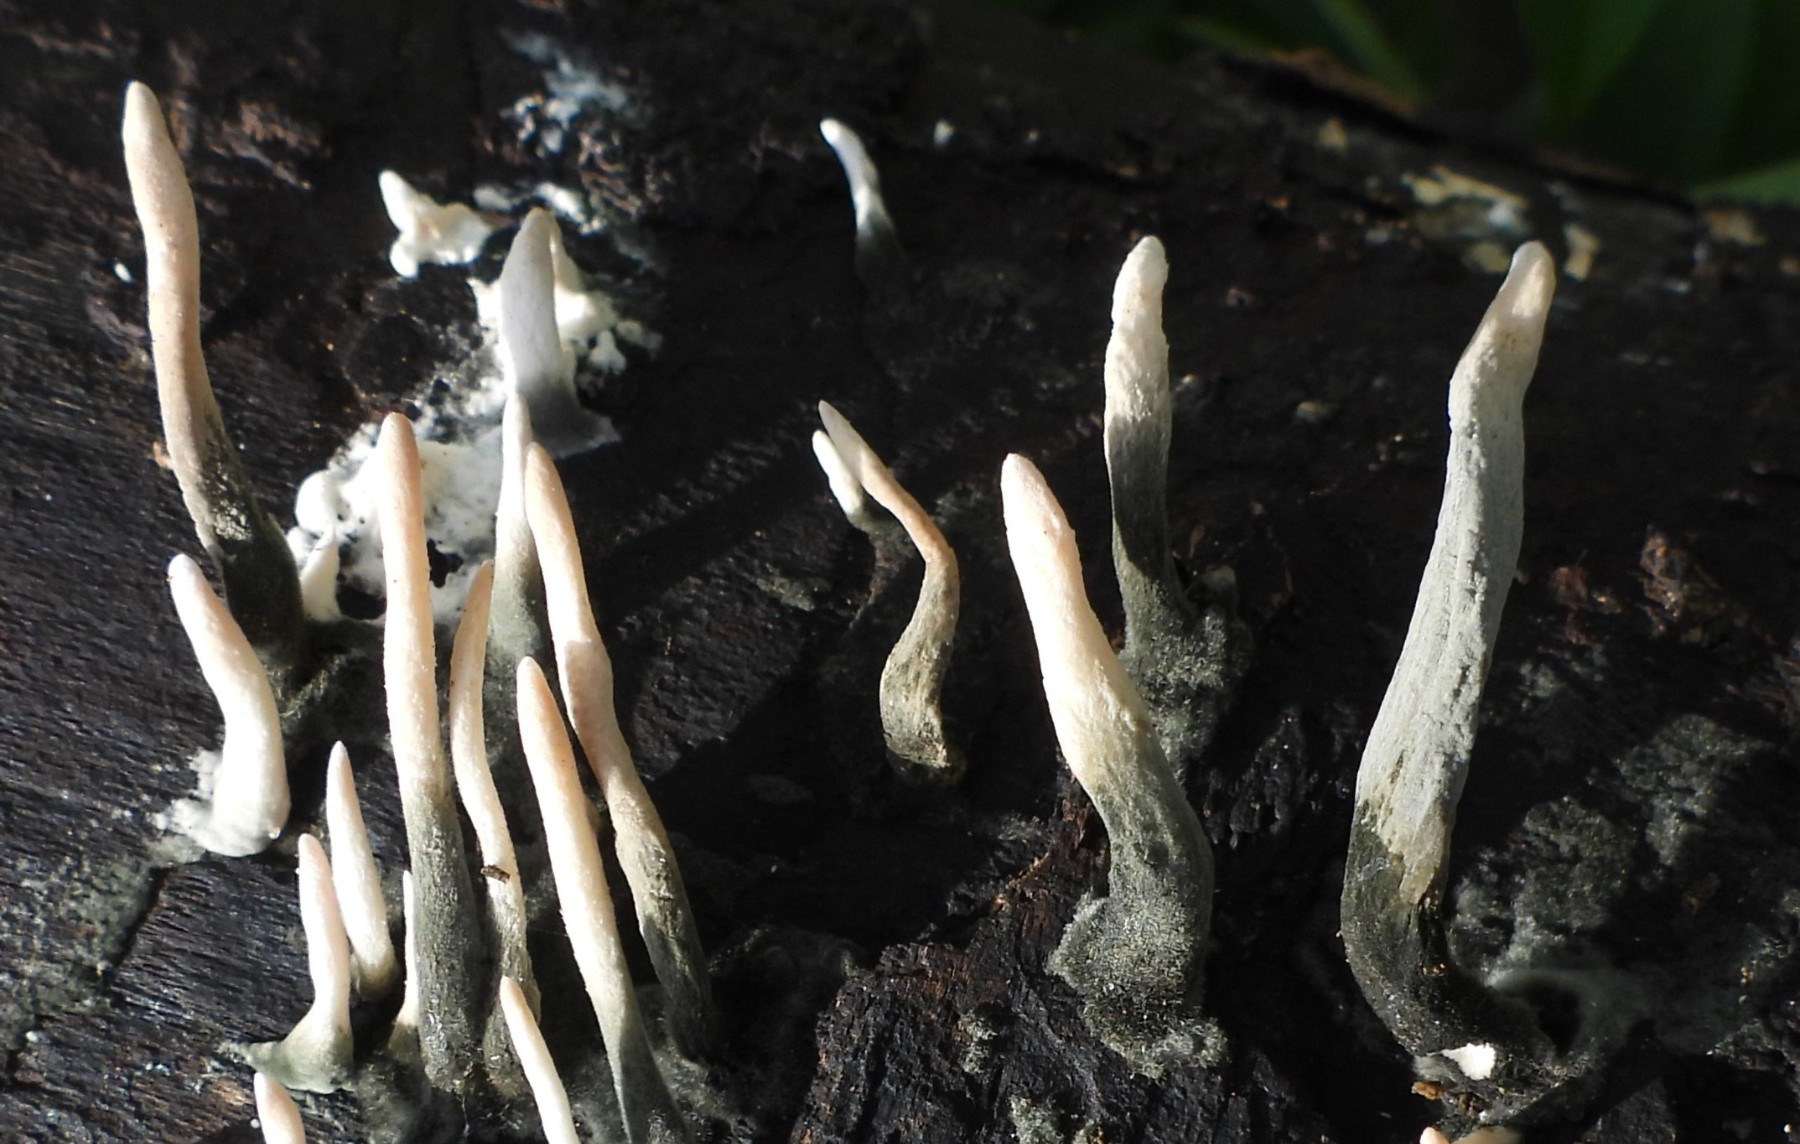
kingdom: Fungi
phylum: Ascomycota
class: Sordariomycetes
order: Xylariales
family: Xylariaceae
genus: Xylaria
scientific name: Xylaria hypoxylon
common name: grenet stødsvamp
